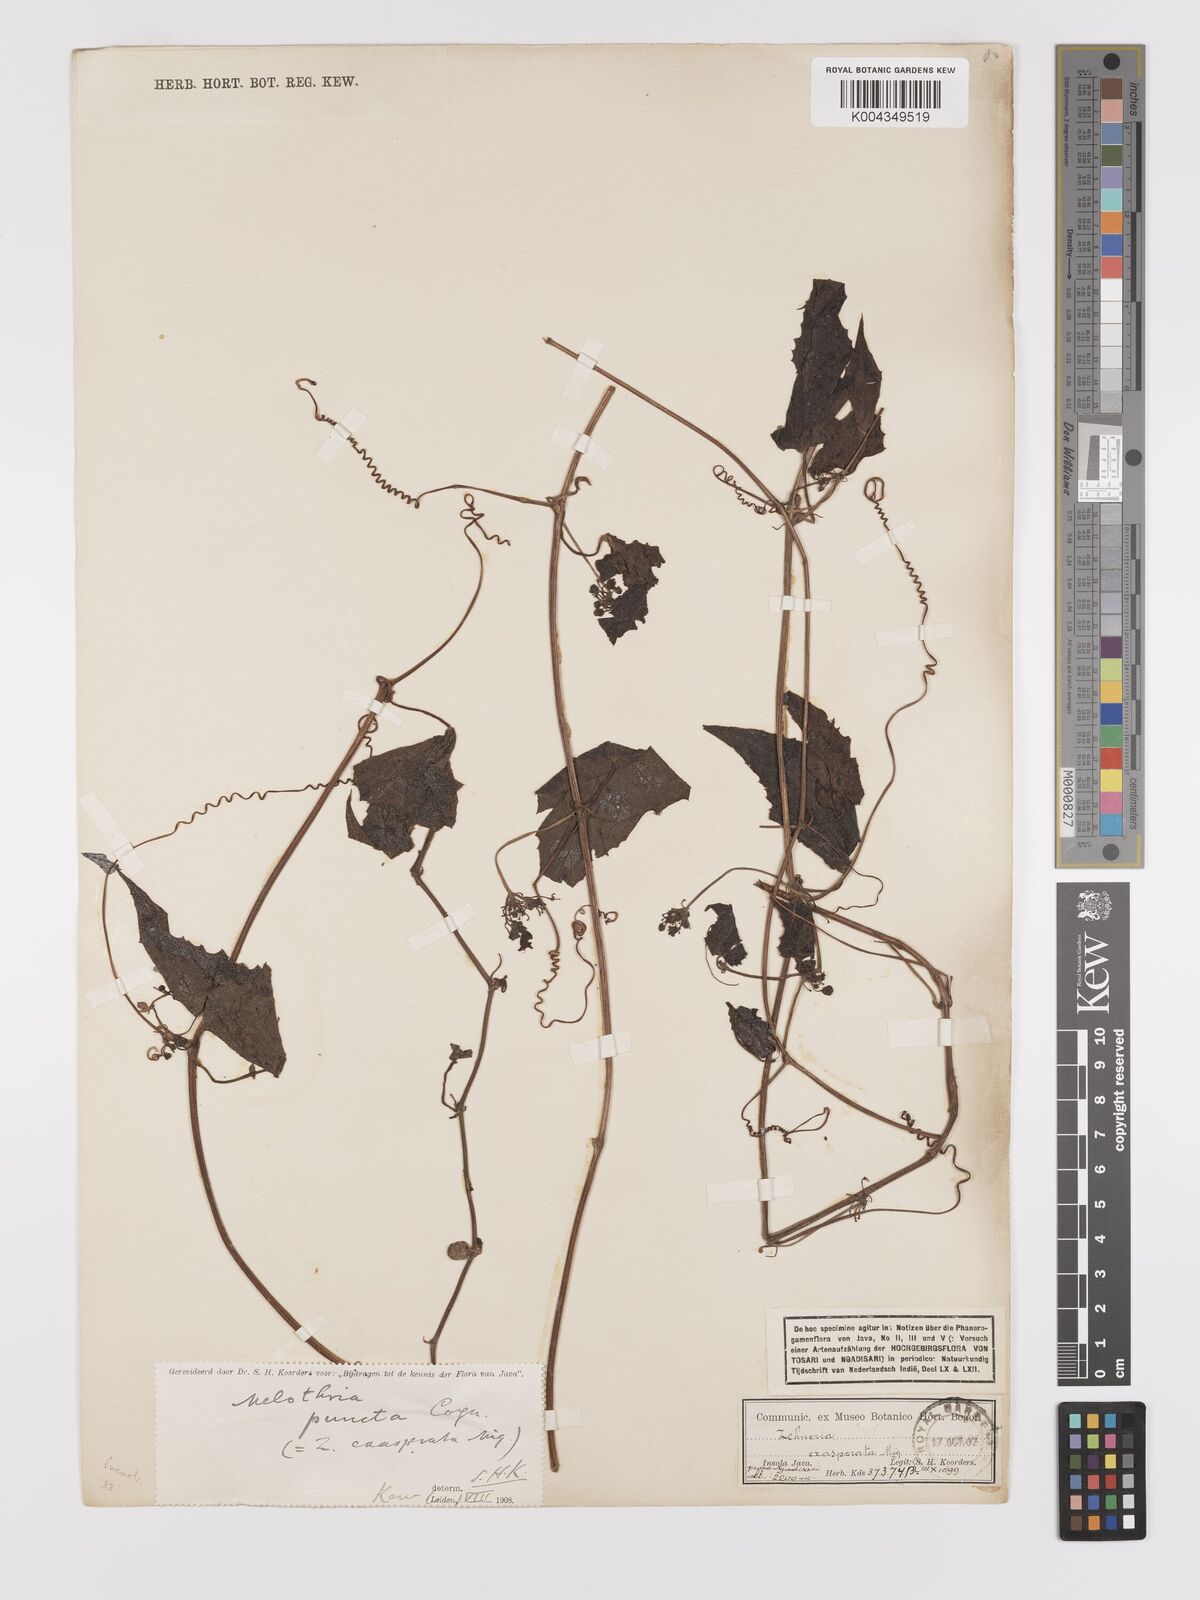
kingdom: Plantae
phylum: Tracheophyta
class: Magnoliopsida
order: Cucurbitales
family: Cucurbitaceae
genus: Zehneria
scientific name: Zehneria scabra
